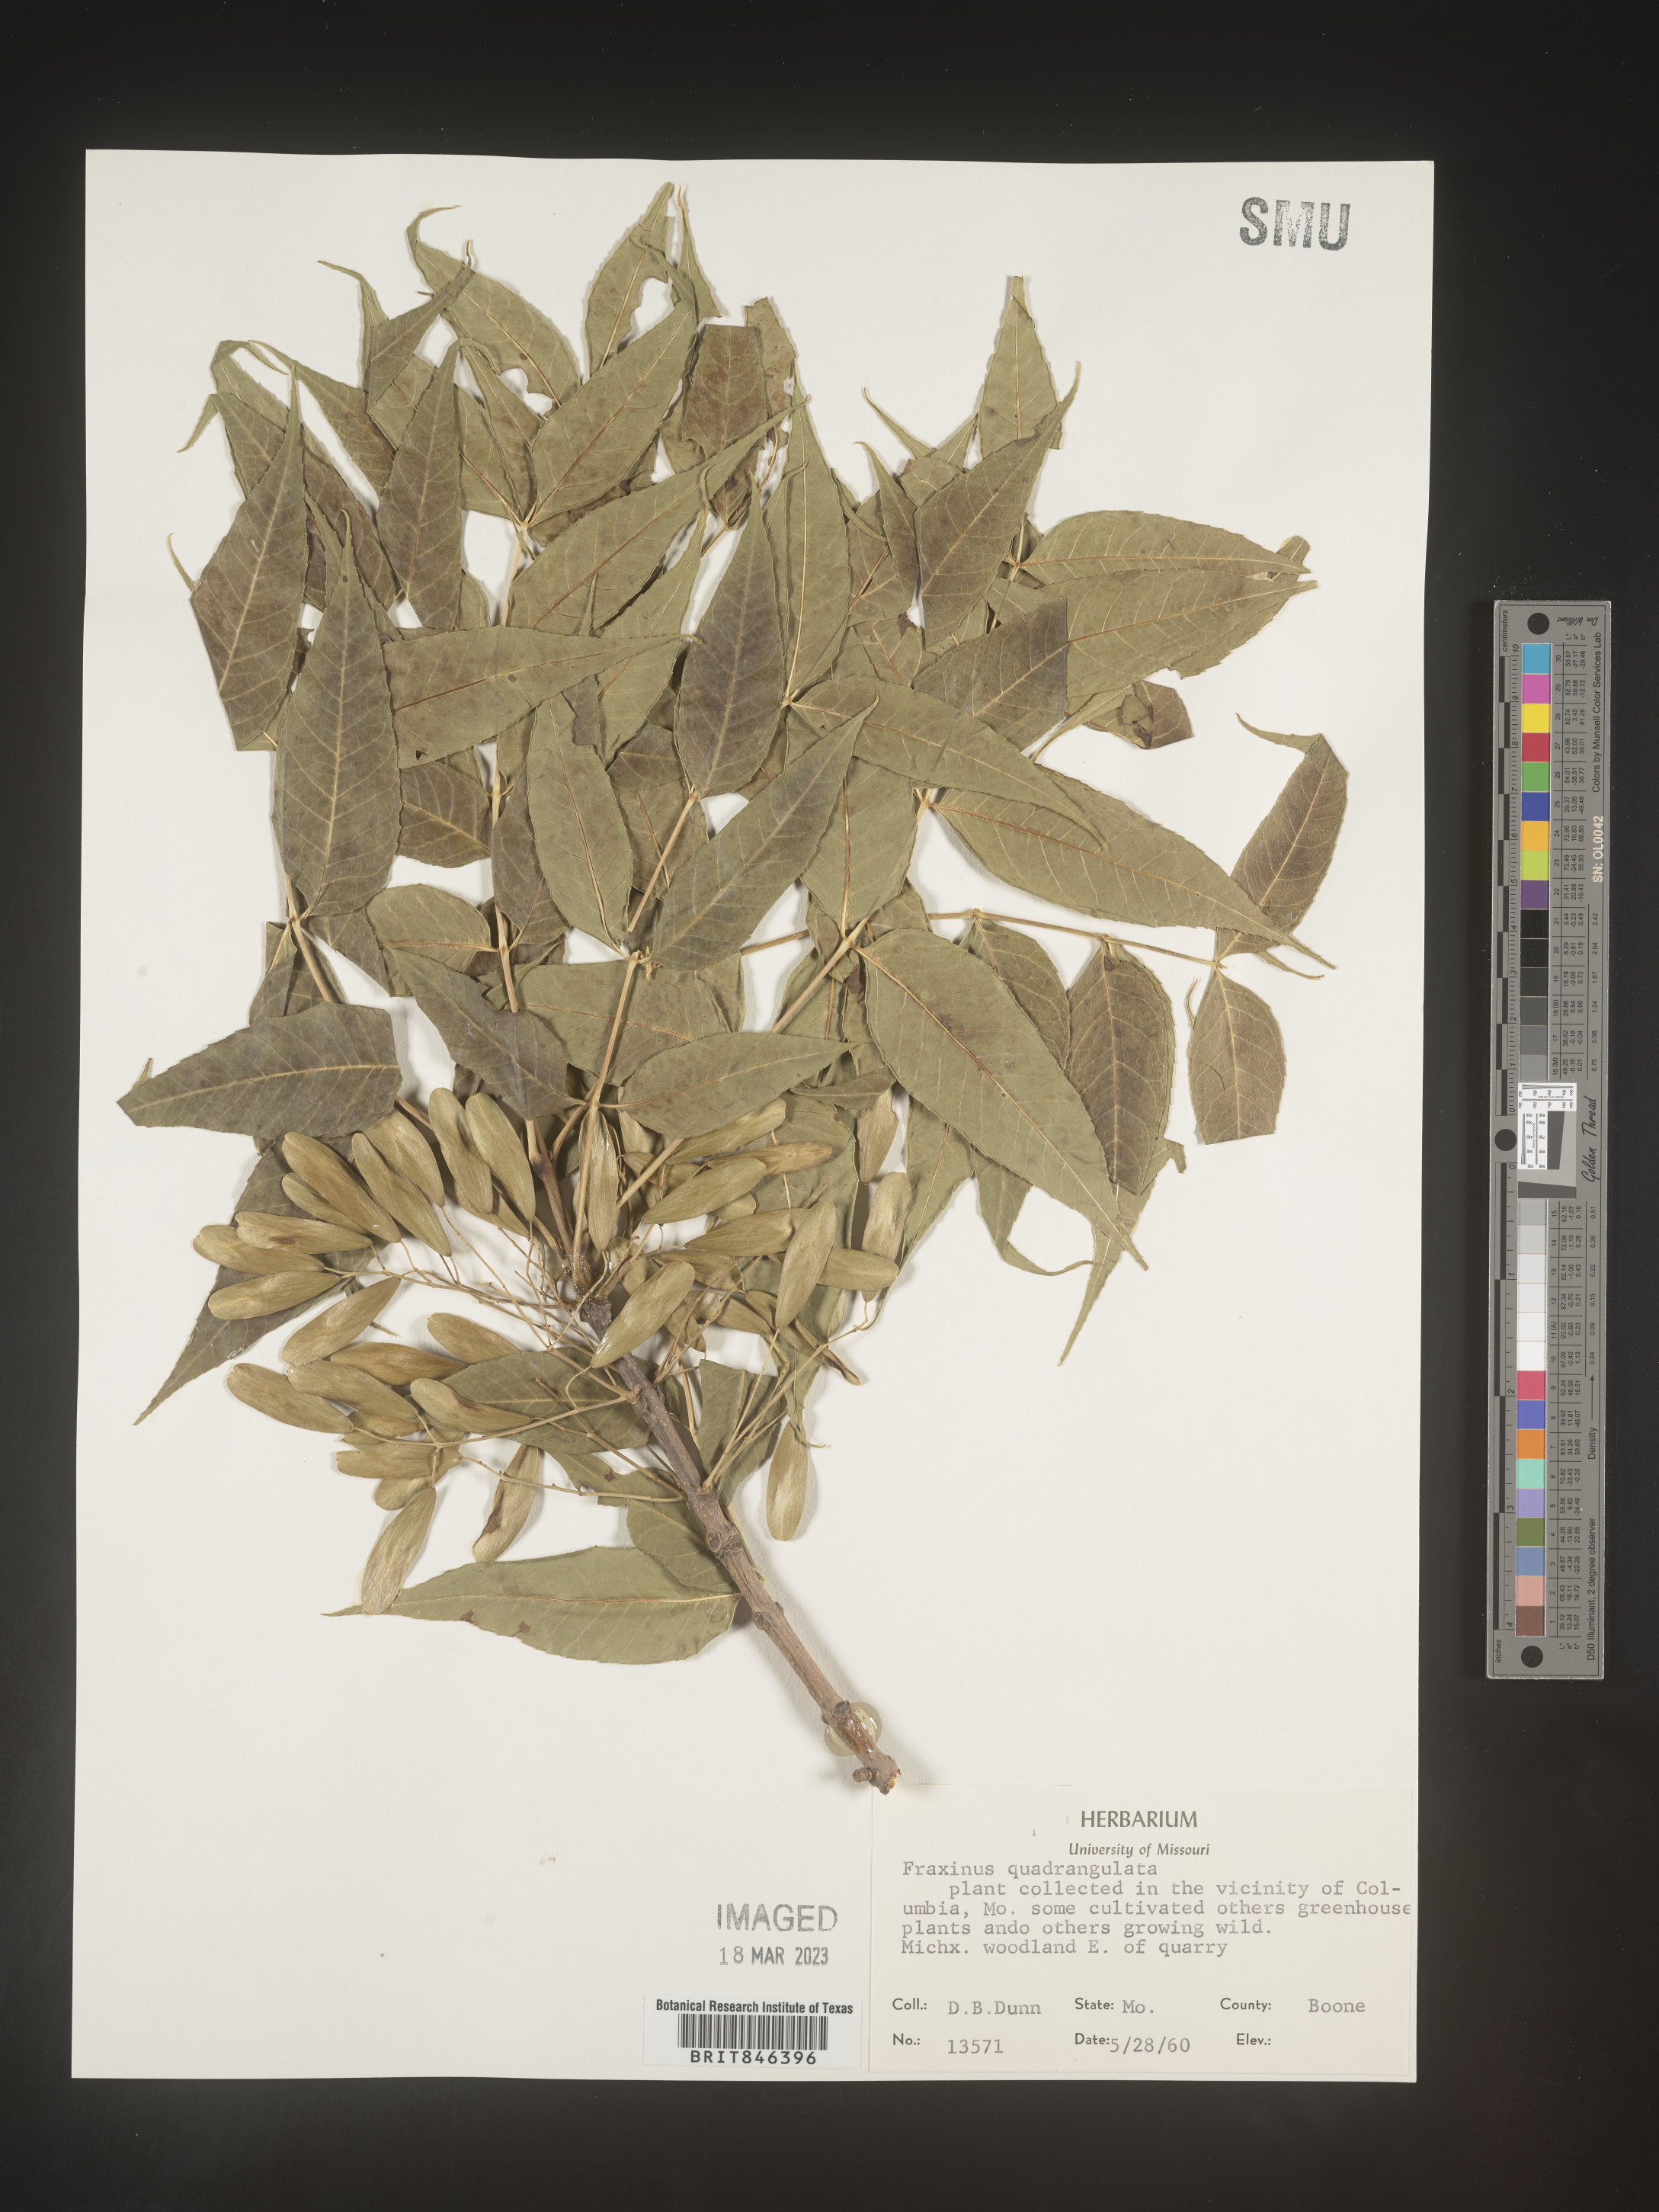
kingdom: Plantae
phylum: Tracheophyta
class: Magnoliopsida
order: Lamiales
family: Oleaceae
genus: Fraxinus
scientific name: Fraxinus quadrangulata
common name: Blue ash
